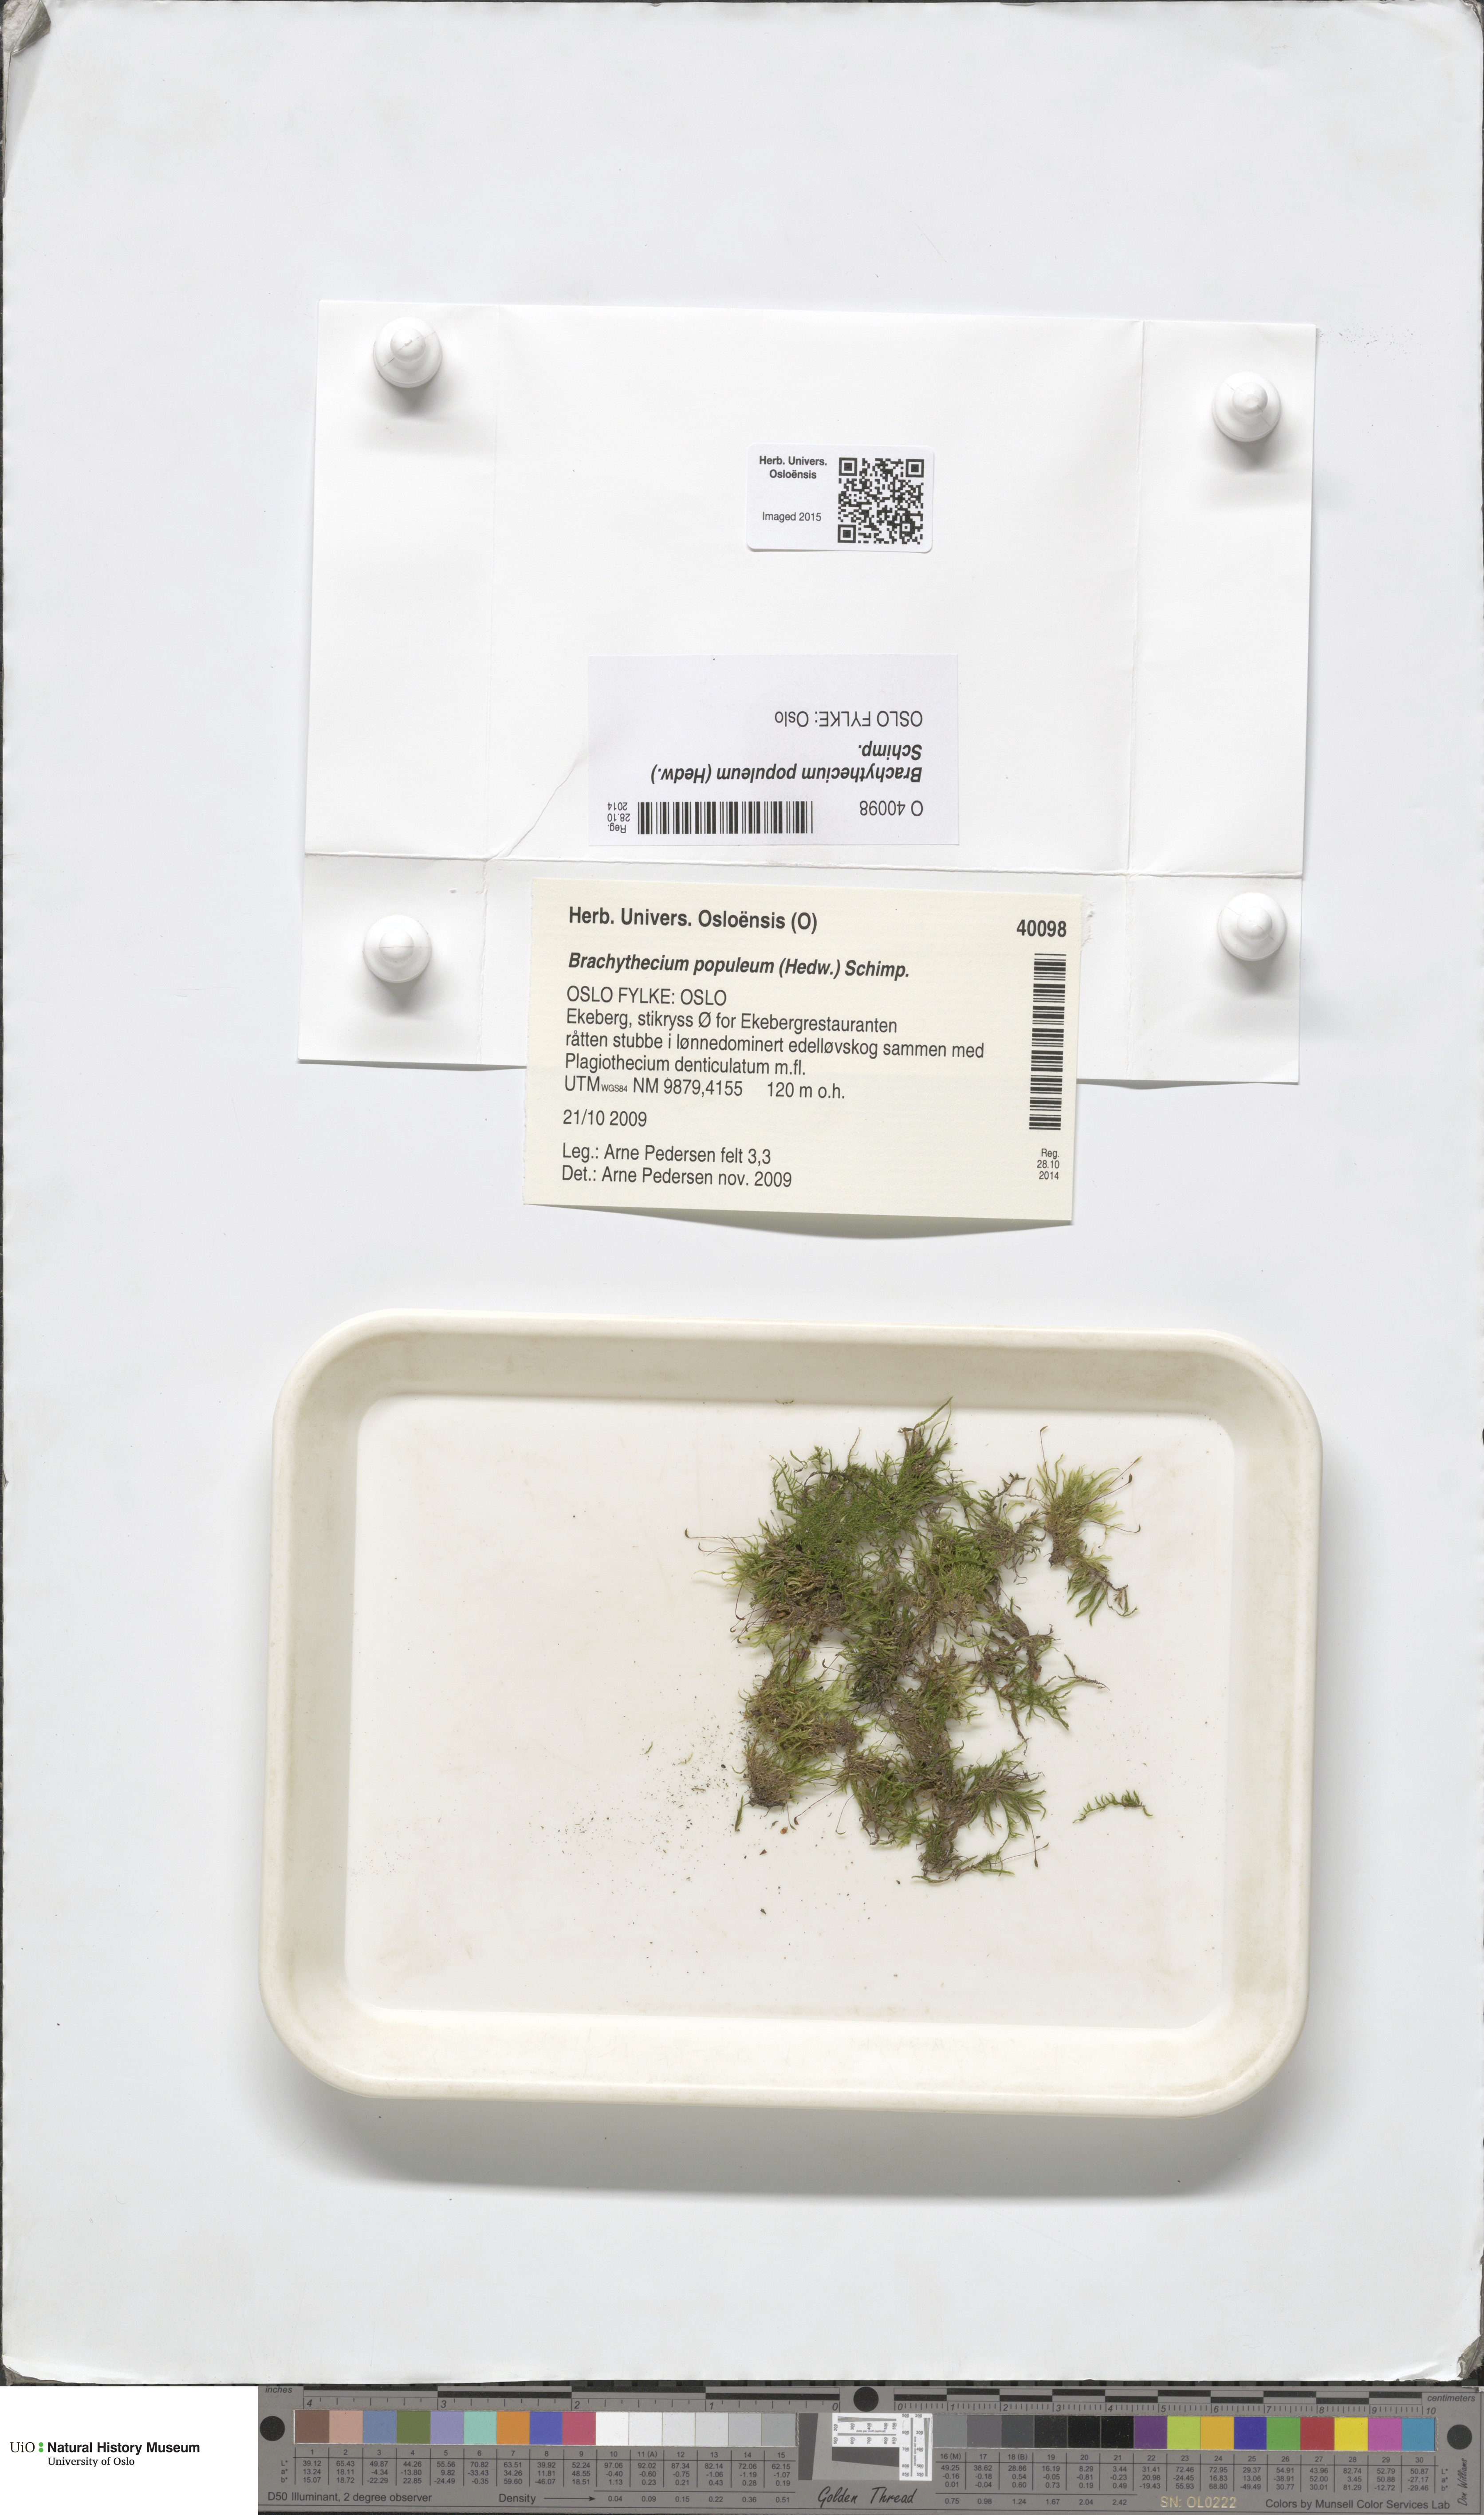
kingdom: Plantae
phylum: Bryophyta
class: Bryopsida
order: Hypnales
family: Brachytheciaceae
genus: Sciuro-hypnum
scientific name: Sciuro-hypnum plumosum
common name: Rusty feather-moss
